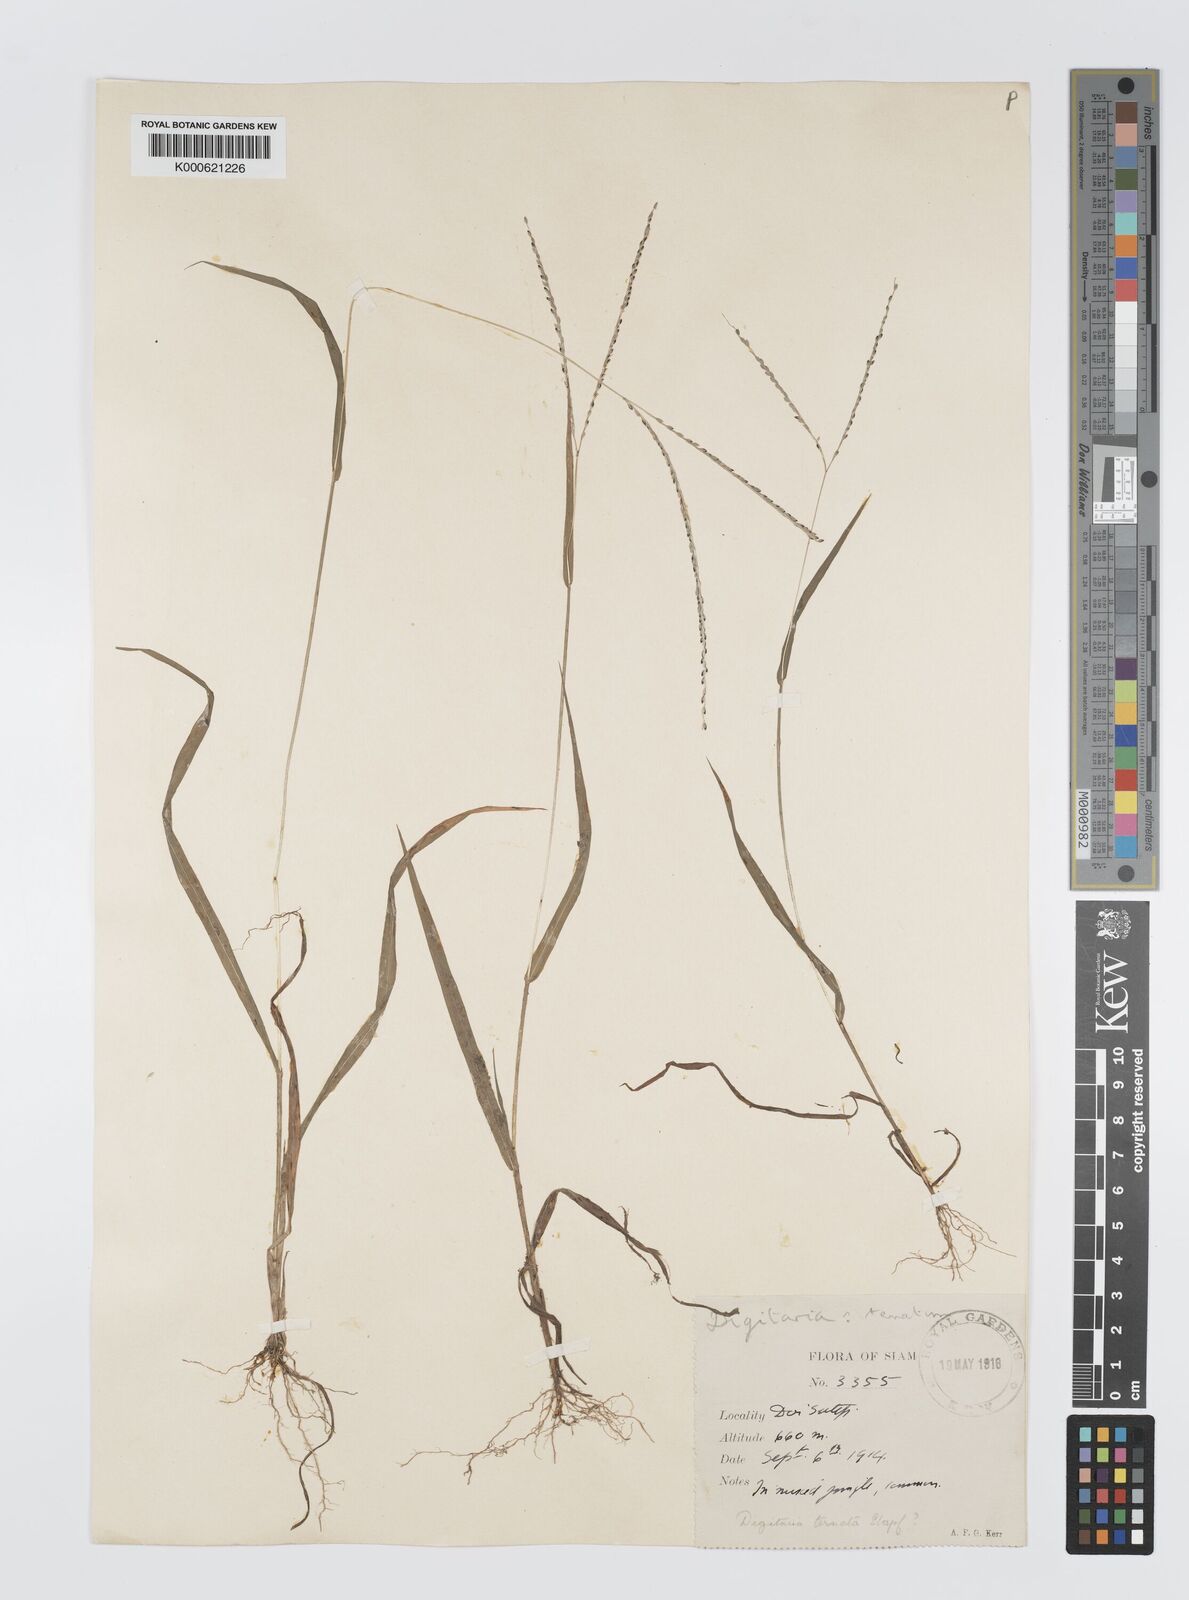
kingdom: Plantae
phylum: Tracheophyta
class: Liliopsida
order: Poales
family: Poaceae
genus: Digitaria
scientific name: Digitaria ternata
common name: Blackseed crabgrass
